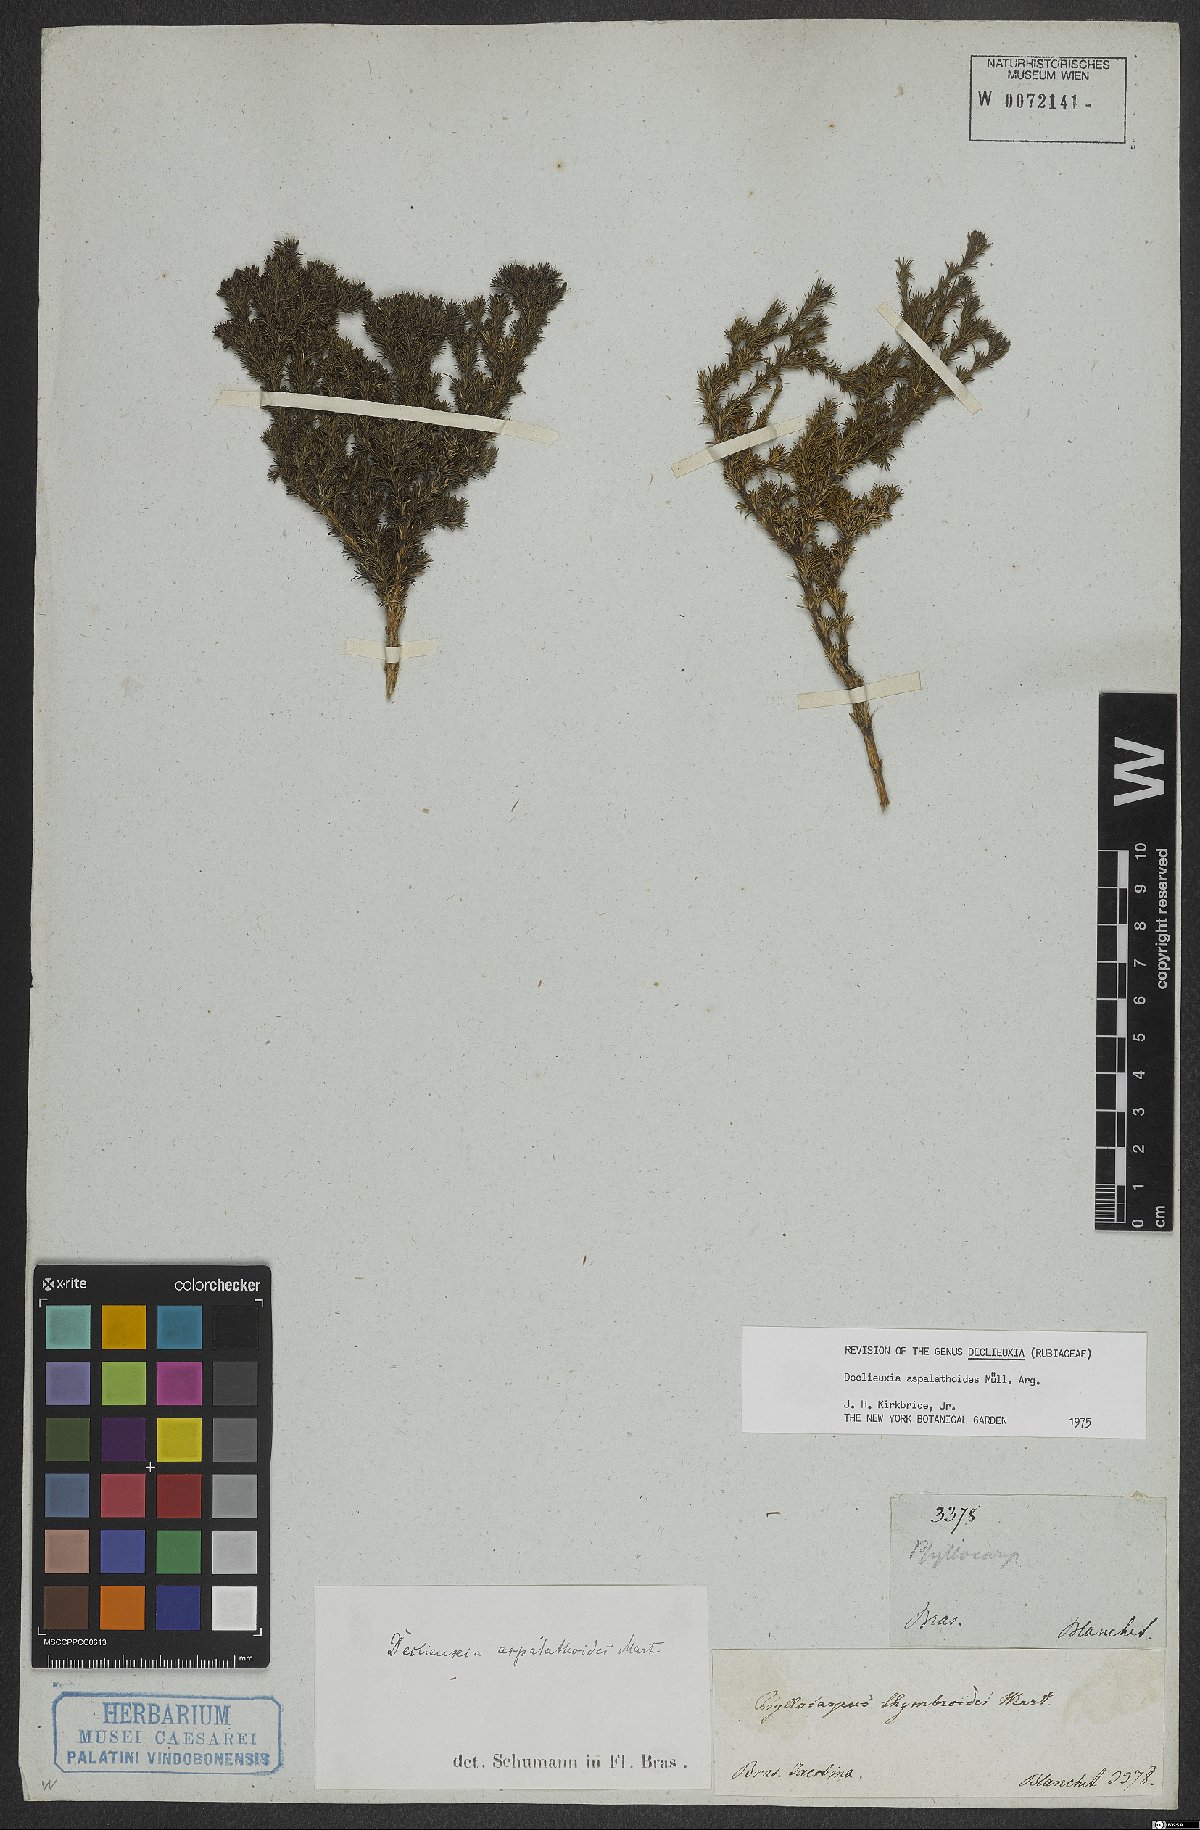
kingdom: Plantae
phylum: Tracheophyta
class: Magnoliopsida
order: Gentianales
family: Rubiaceae
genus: Declieuxia
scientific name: Declieuxia aspalathoides
